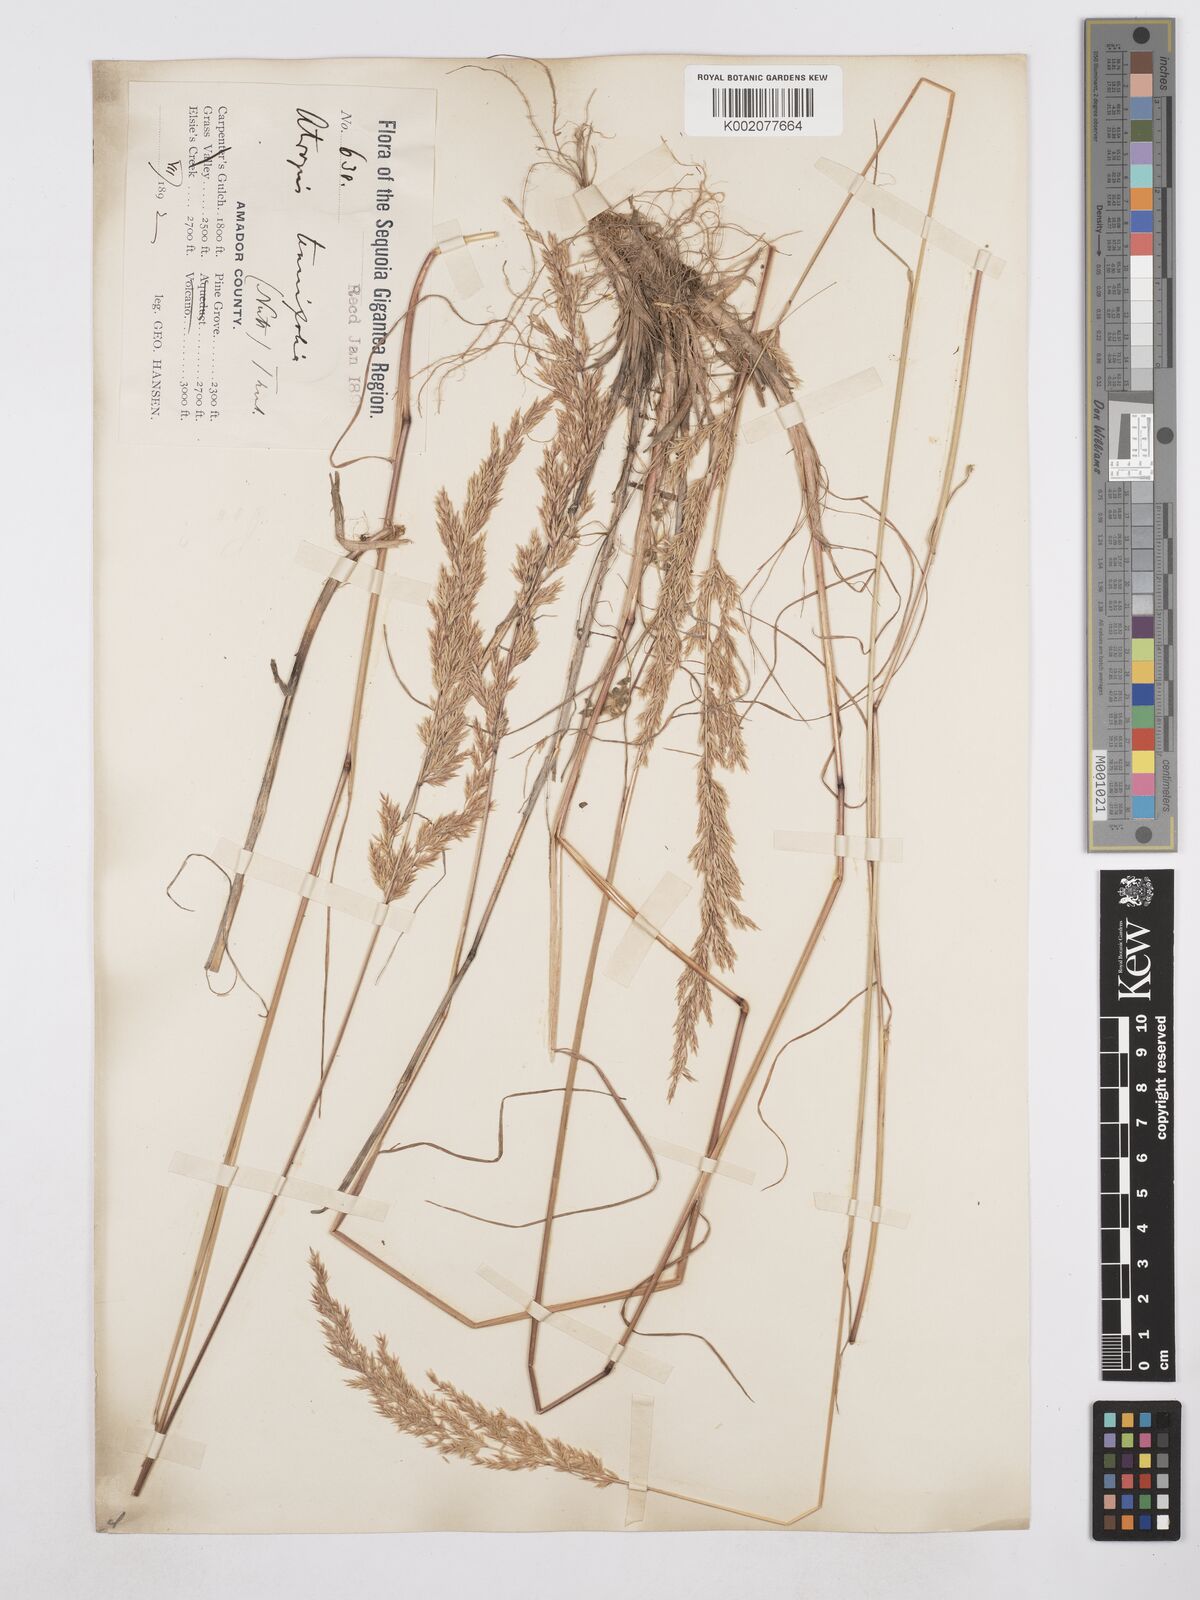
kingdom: Plantae
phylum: Tracheophyta
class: Liliopsida
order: Poales
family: Poaceae
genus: Poa
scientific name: Poa secunda
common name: Sandberg bluegrass
